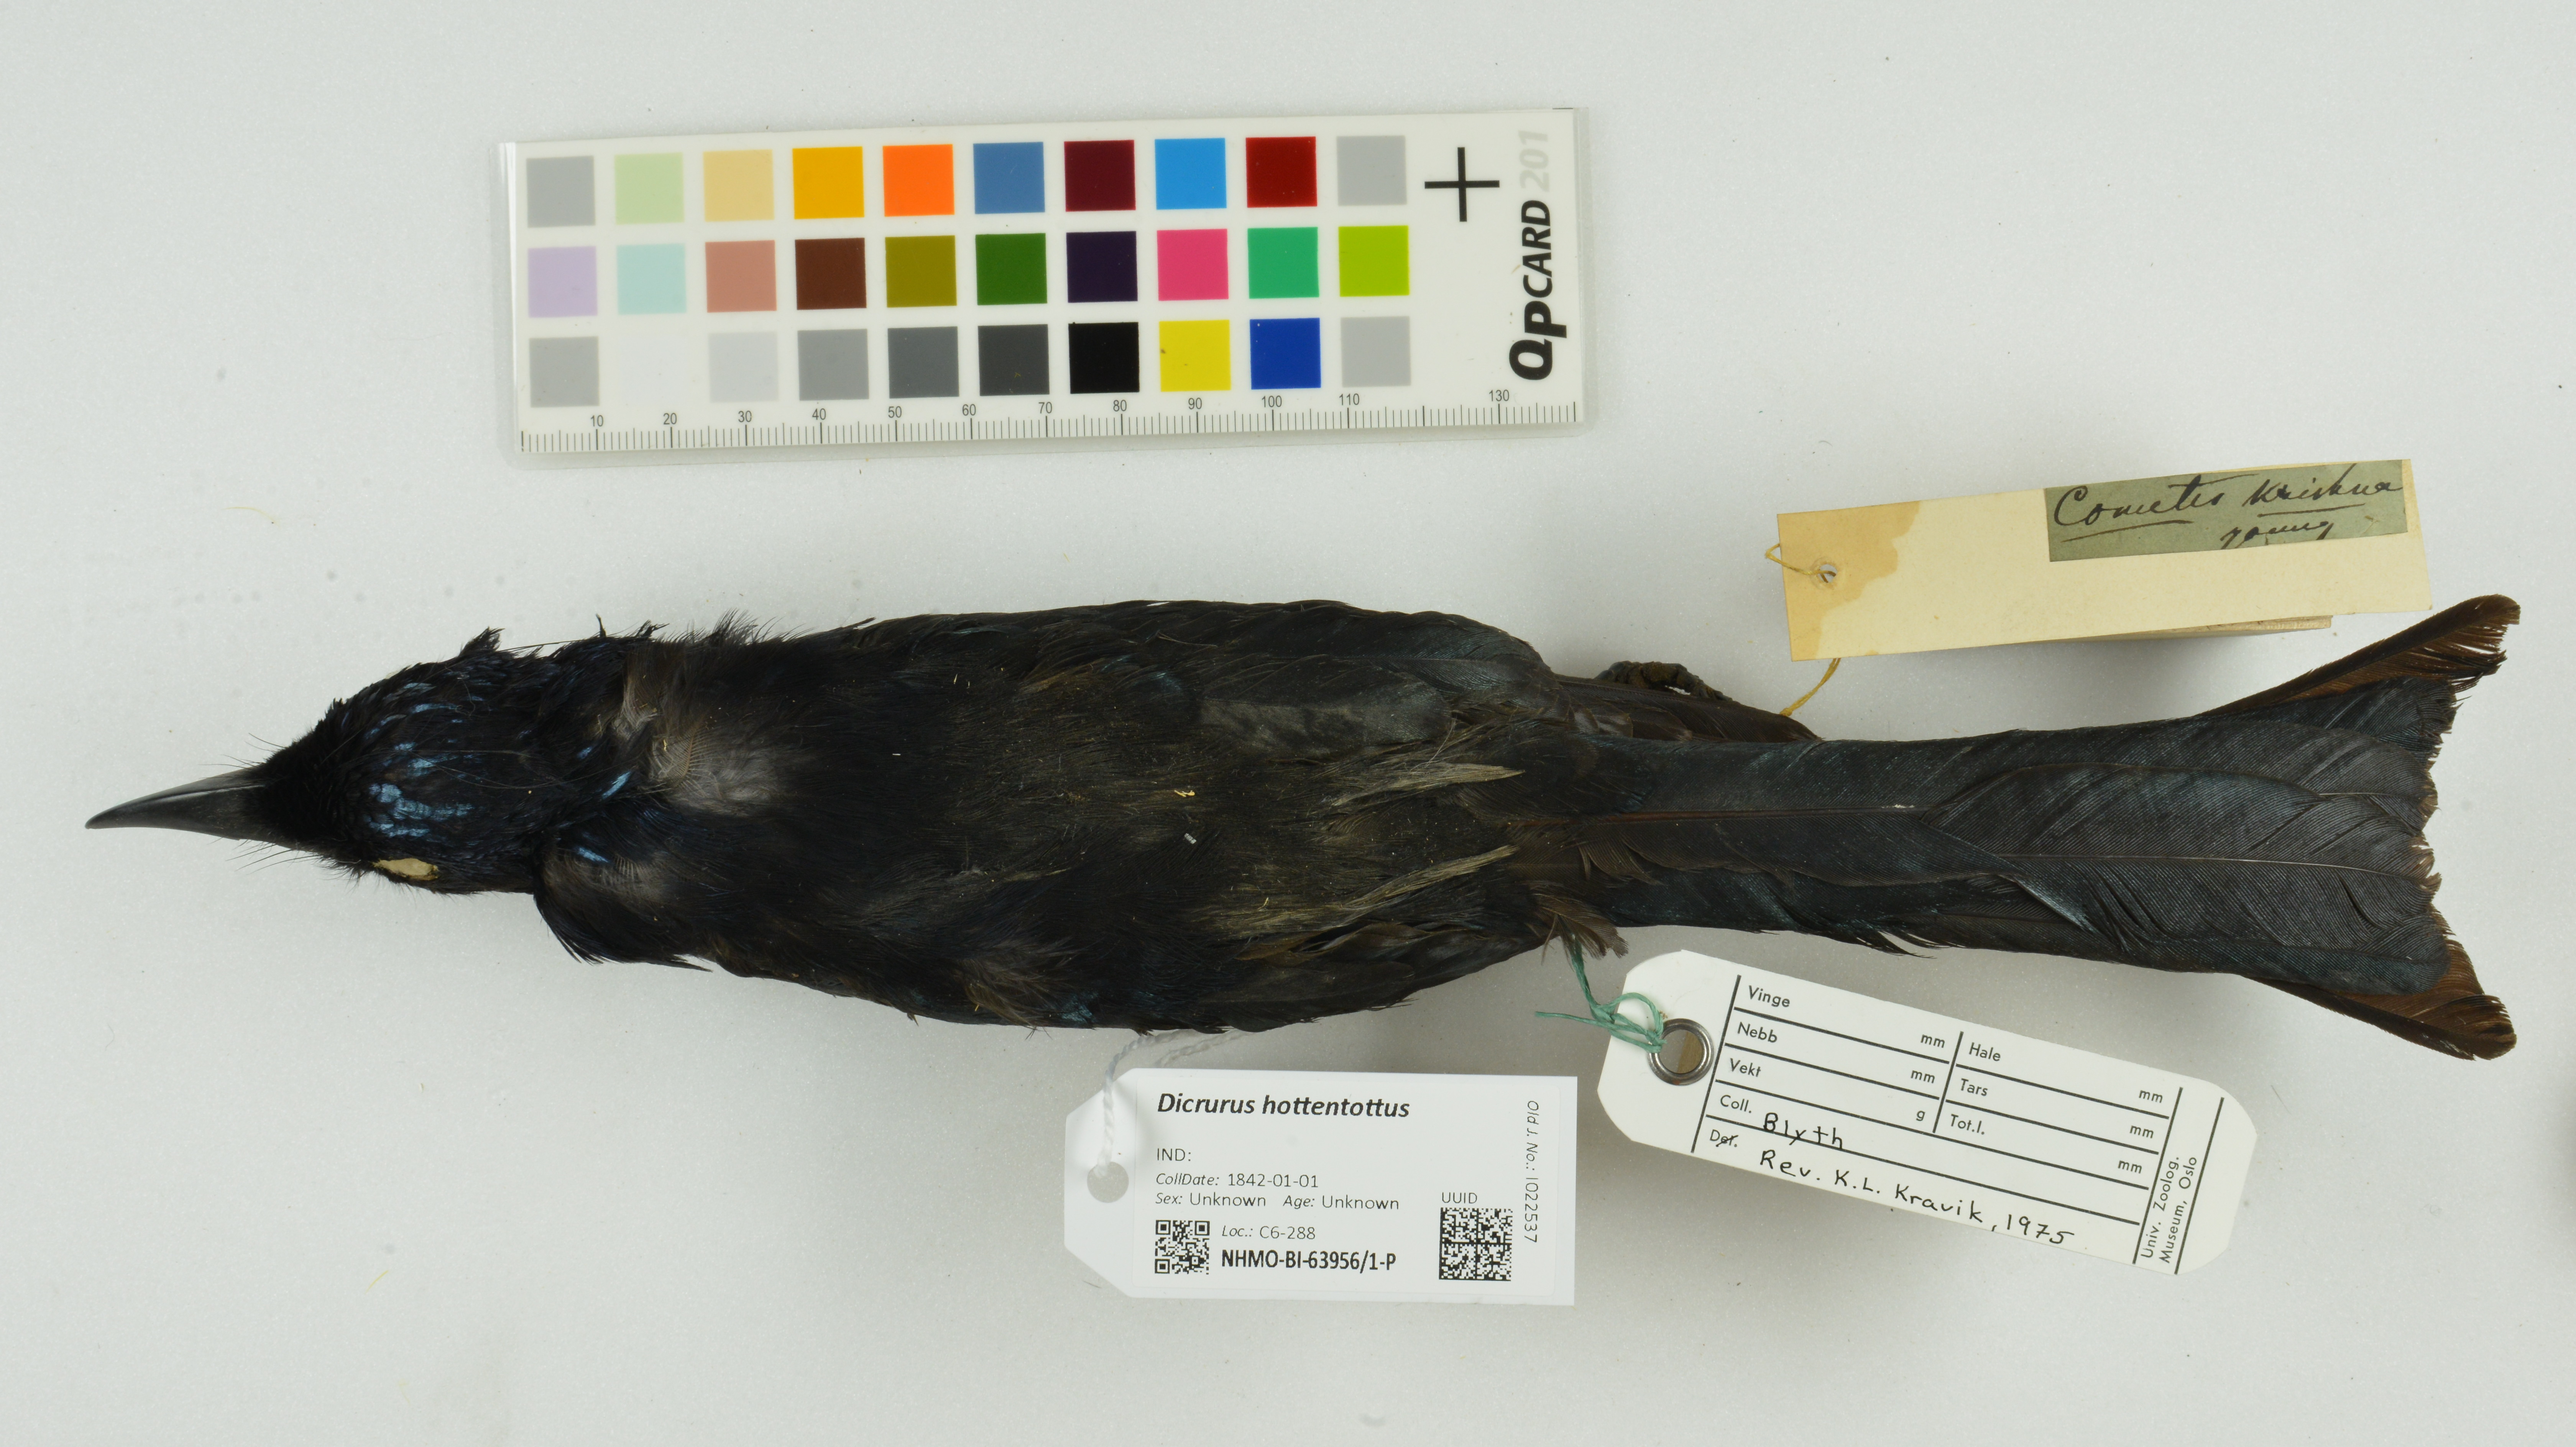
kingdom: Animalia
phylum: Chordata
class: Aves
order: Passeriformes
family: Dicruridae
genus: Dicrurus
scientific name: Dicrurus hottentottus
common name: Hair-crested drongo
